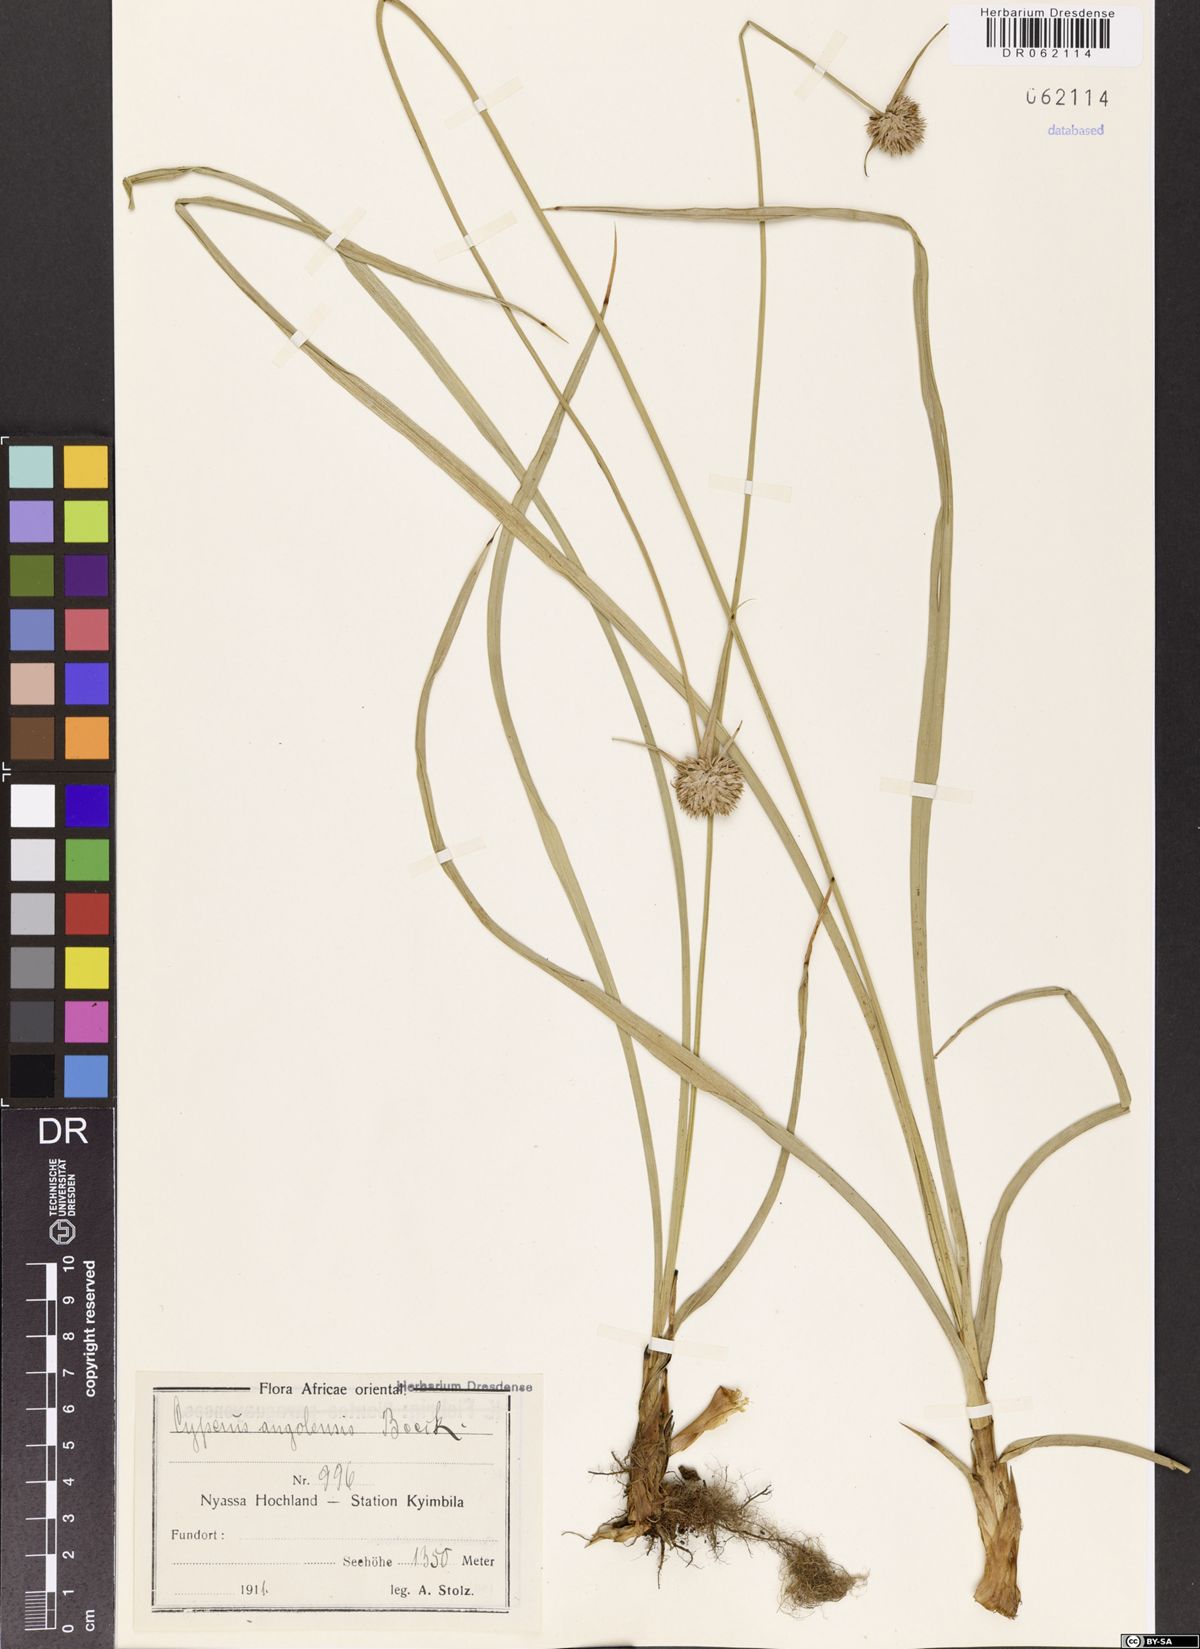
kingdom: Plantae
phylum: Tracheophyta
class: Liliopsida
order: Poales
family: Cyperaceae
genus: Cyperus
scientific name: Cyperus angolensis
